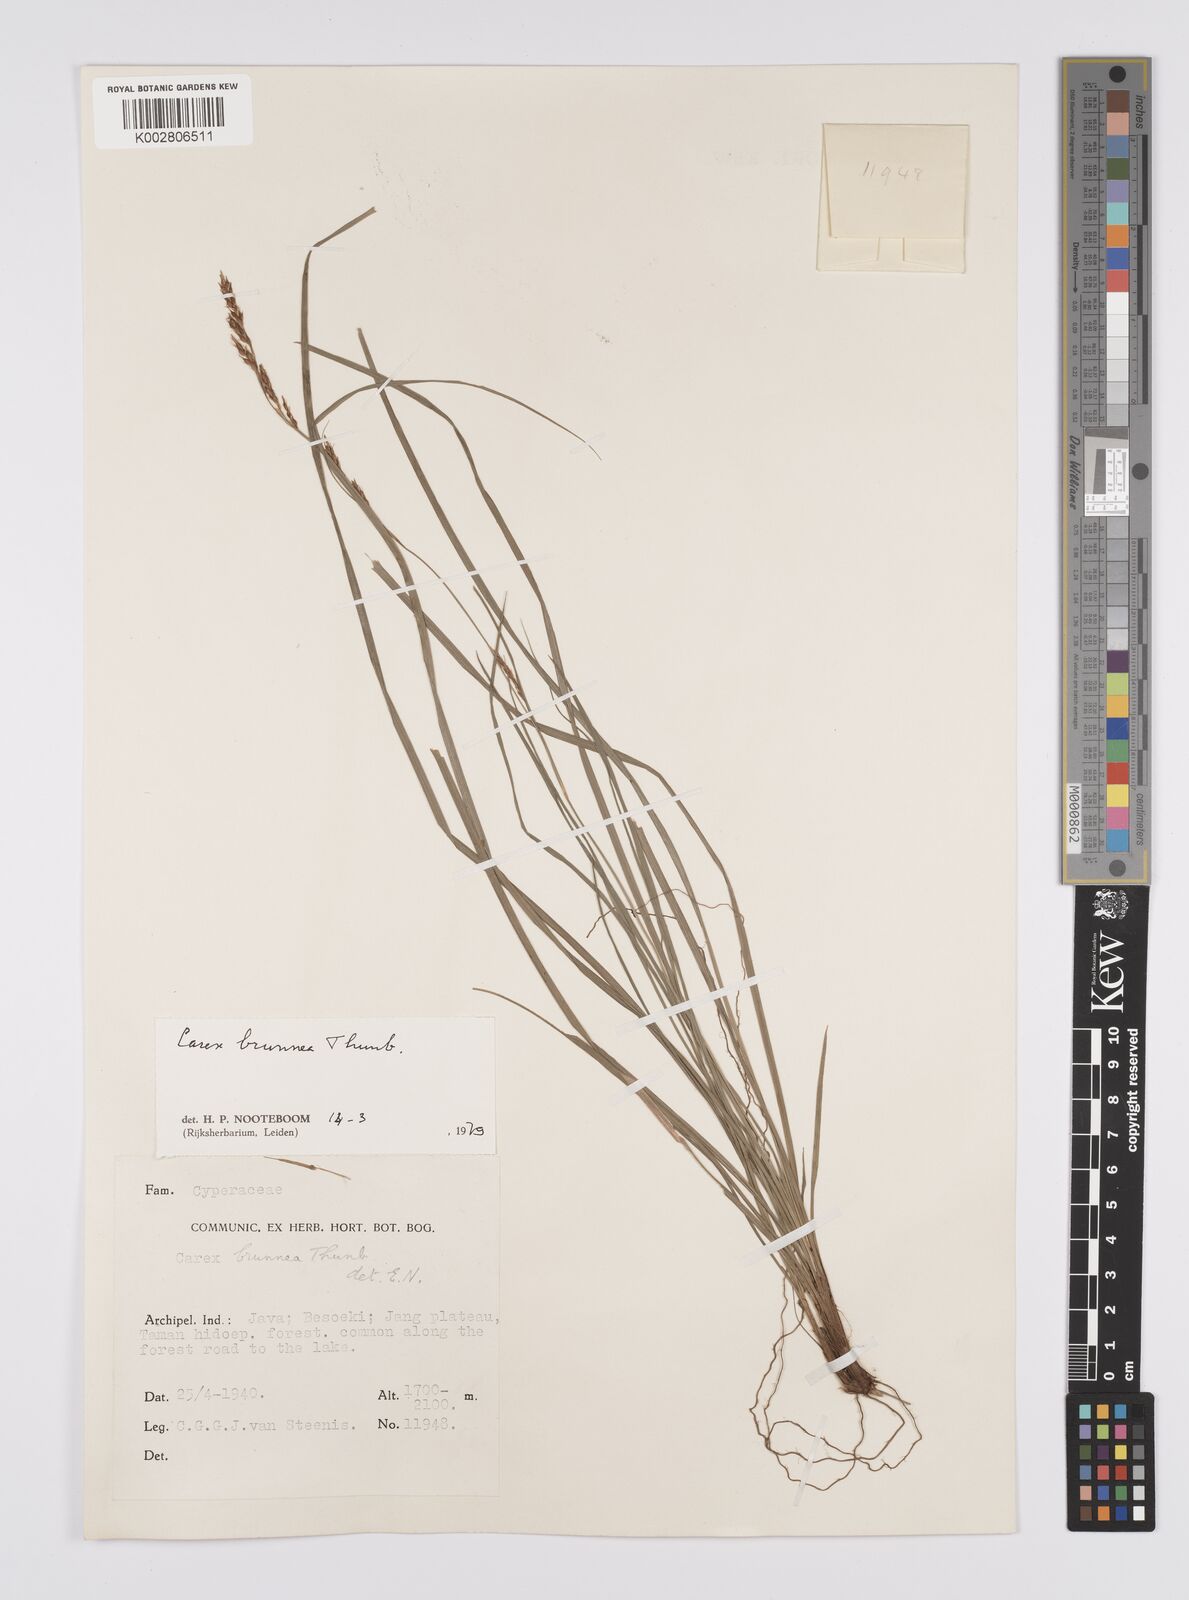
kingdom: Plantae
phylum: Tracheophyta
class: Liliopsida
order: Poales
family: Cyperaceae
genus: Carex
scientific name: Carex brunnea
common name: Greater brown sedge
